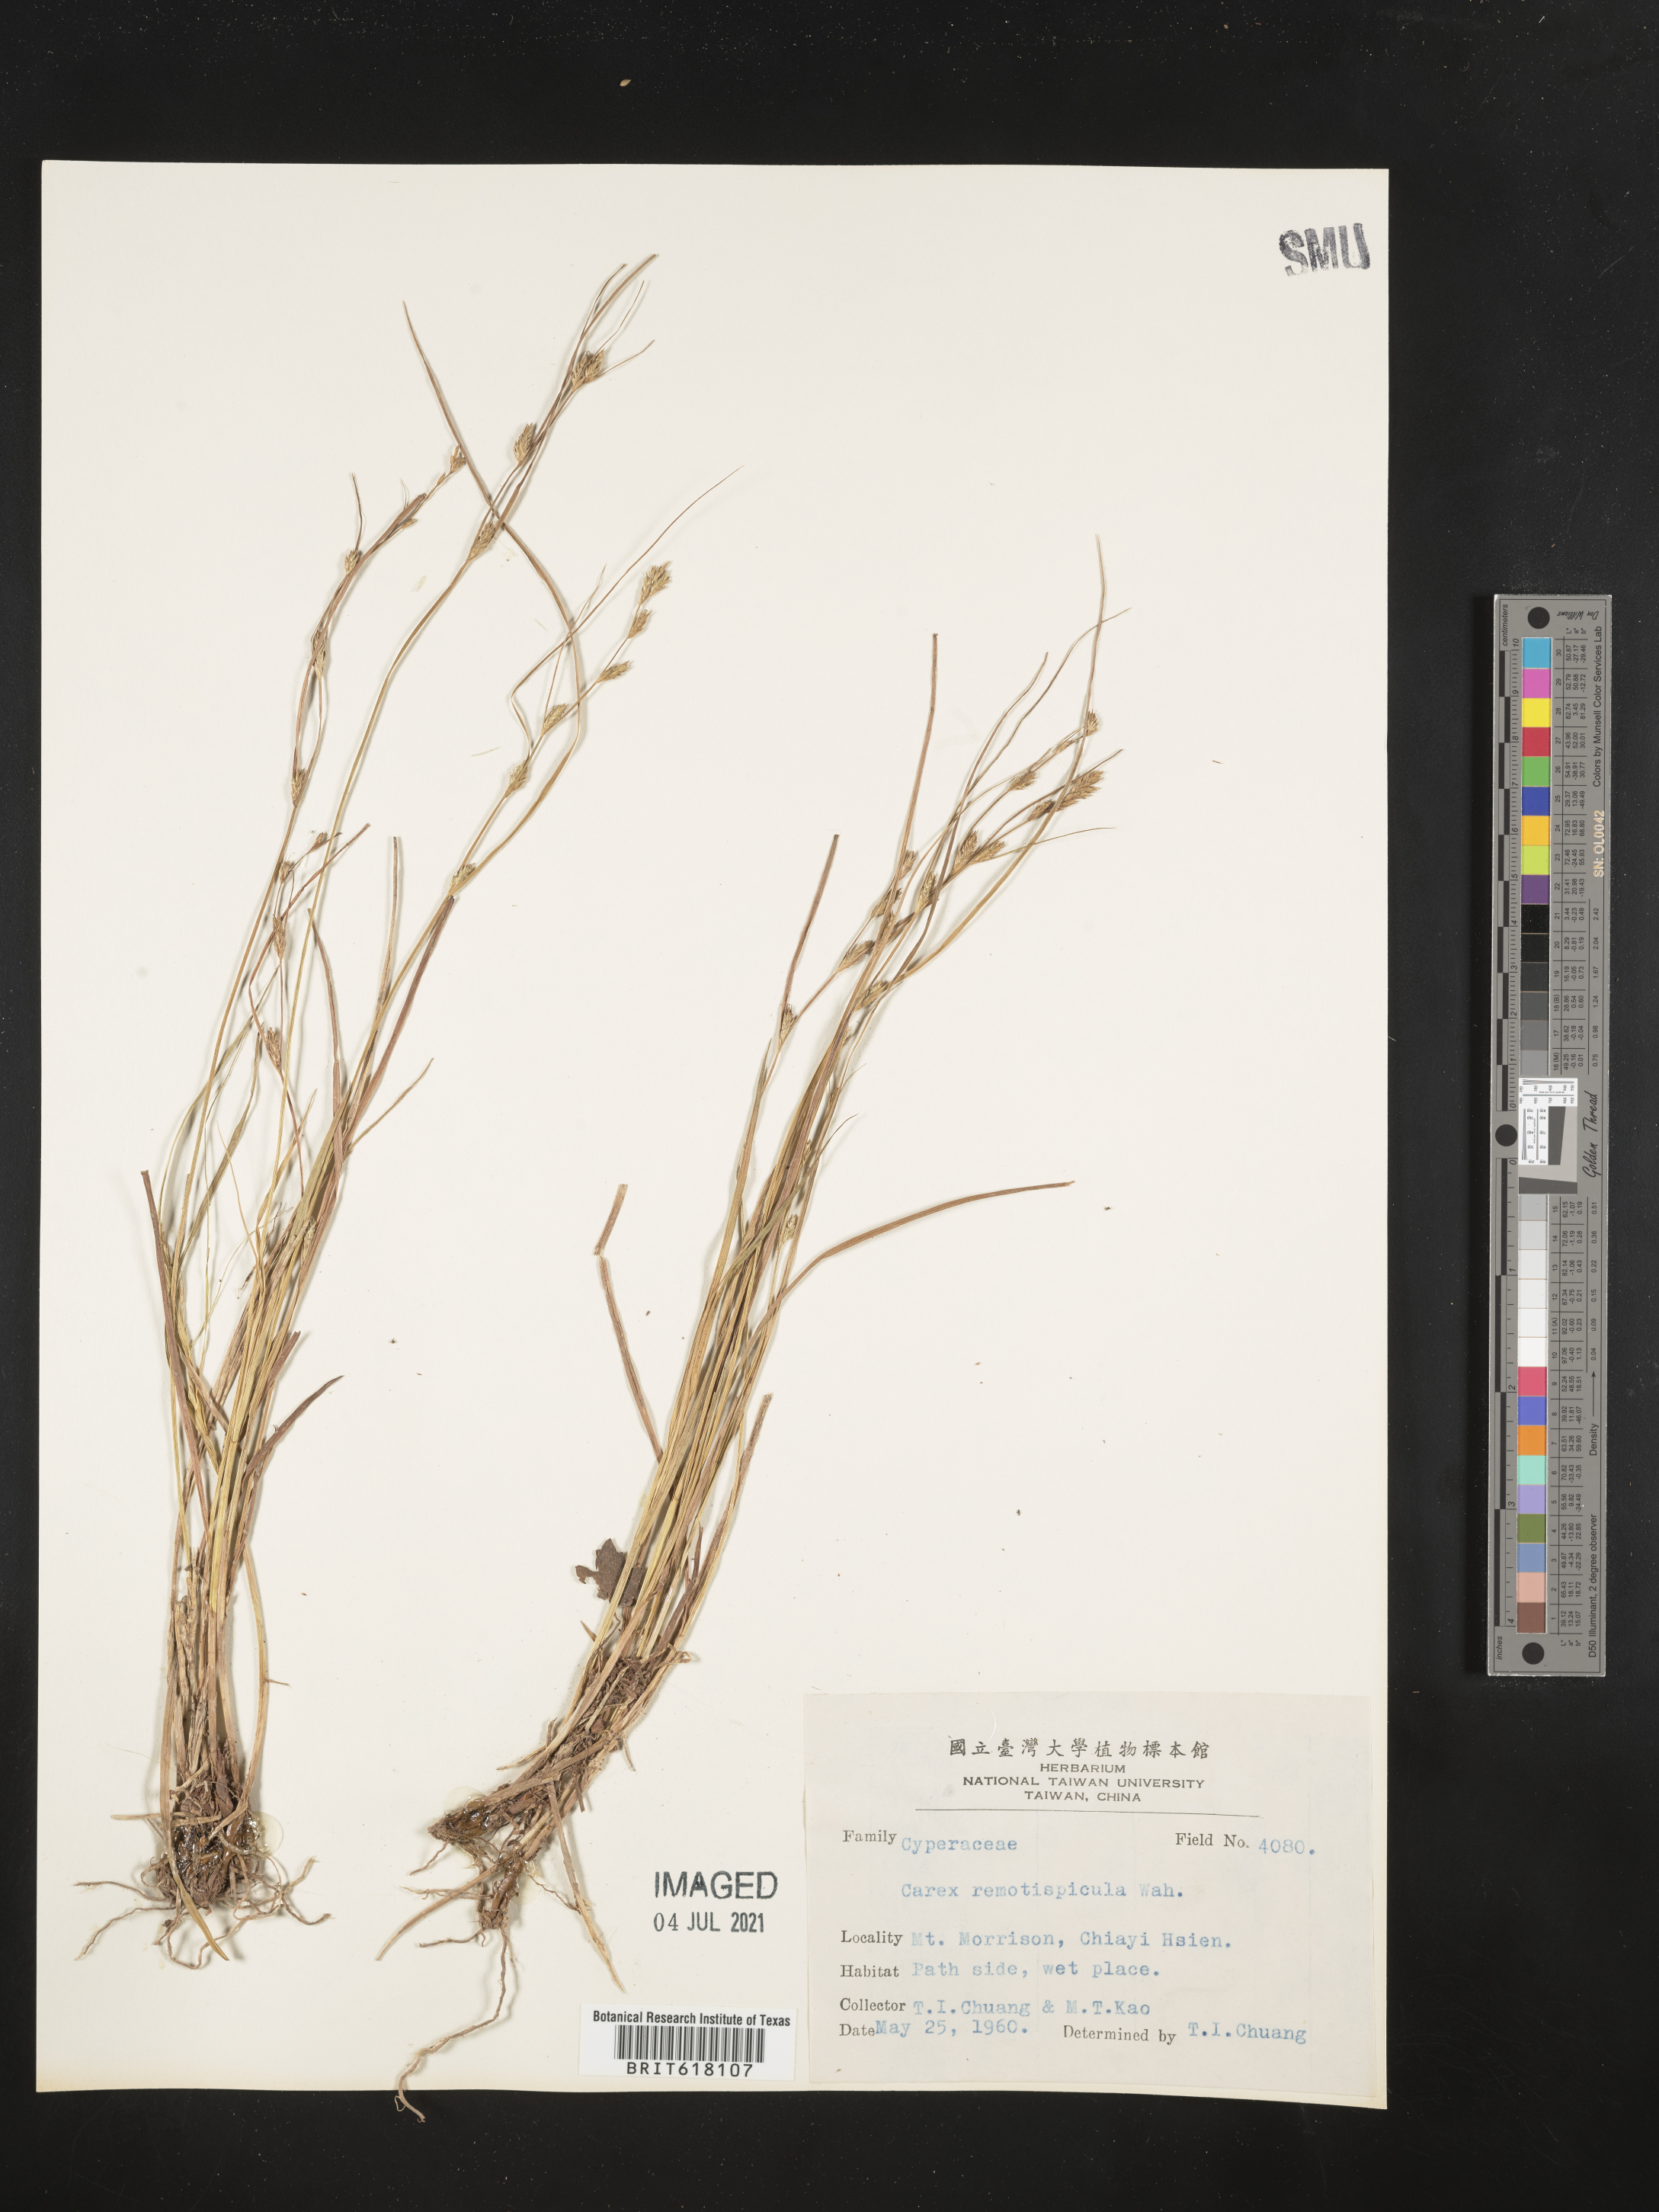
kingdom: Plantae
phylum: Tracheophyta
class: Liliopsida
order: Poales
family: Cyperaceae
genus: Carex
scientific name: Carex rochebrunei
